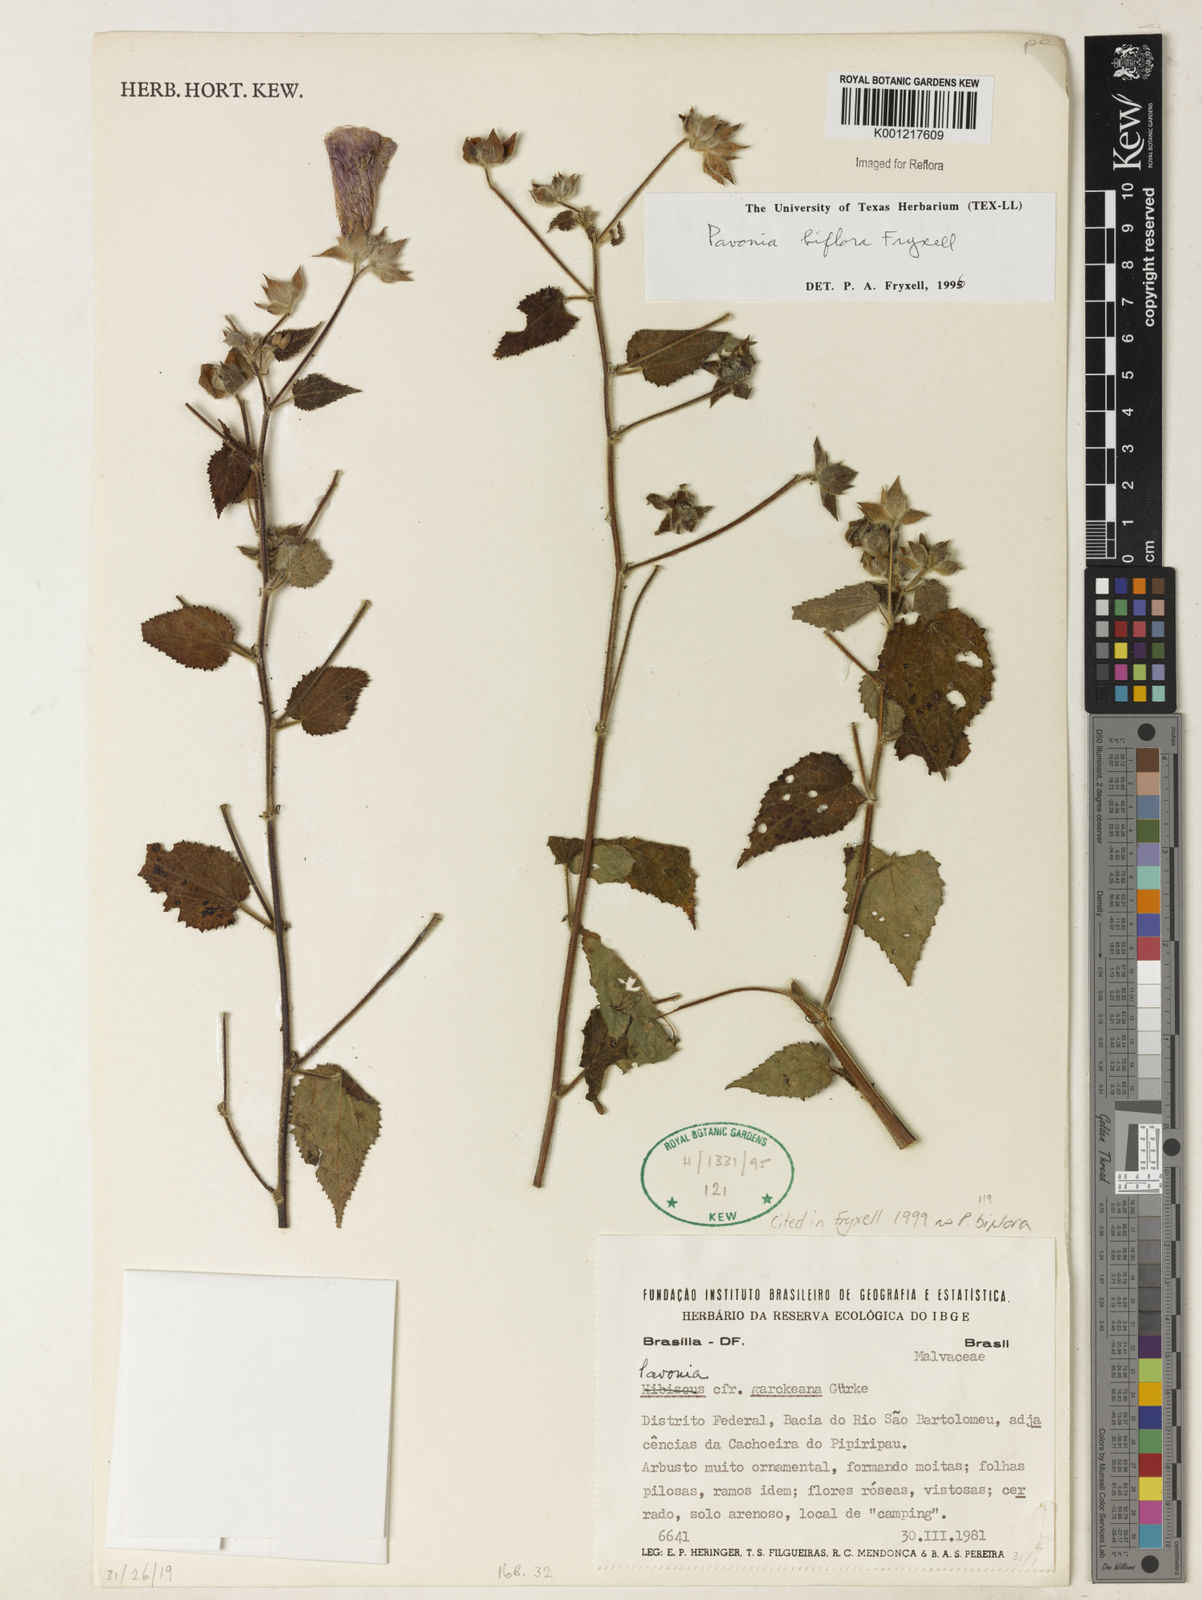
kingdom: Plantae
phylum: Tracheophyta
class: Magnoliopsida
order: Malvales
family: Malvaceae
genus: Pavonia
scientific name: Pavonia biflora
